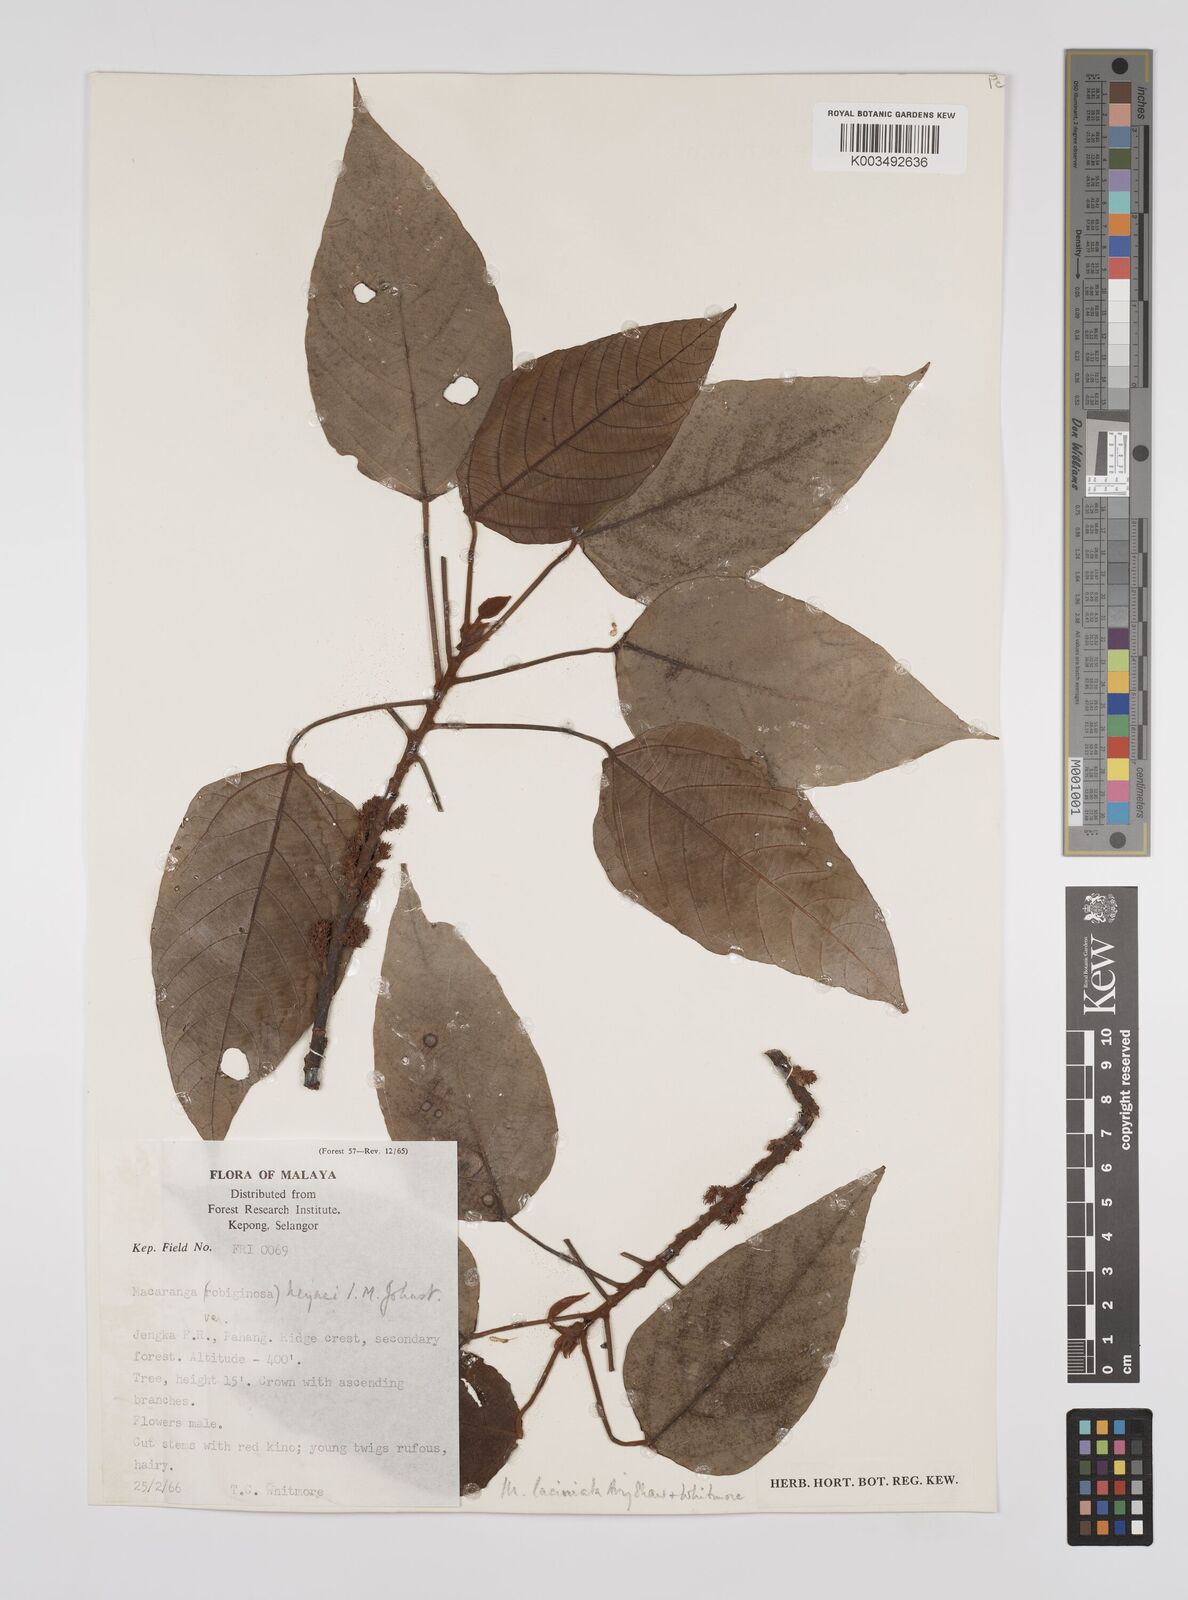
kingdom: Plantae
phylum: Tracheophyta
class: Magnoliopsida
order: Malpighiales
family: Euphorbiaceae
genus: Macaranga
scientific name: Macaranga laciniata
